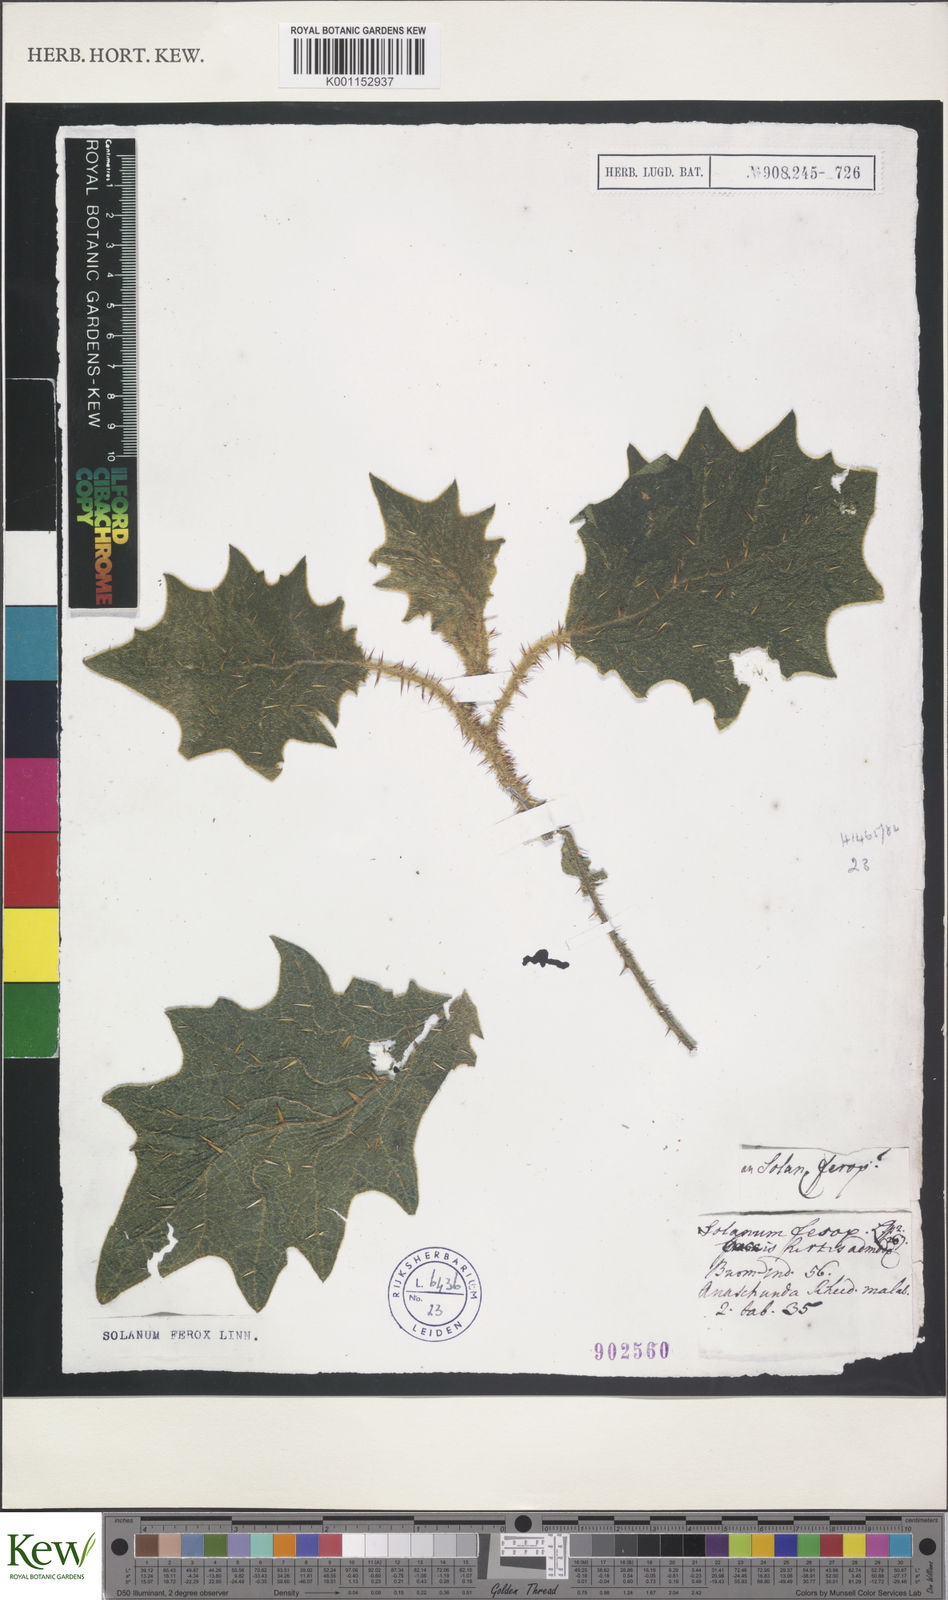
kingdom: Plantae
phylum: Tracheophyta
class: Magnoliopsida
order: Solanales
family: Solanaceae
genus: Solanum
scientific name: Solanum
